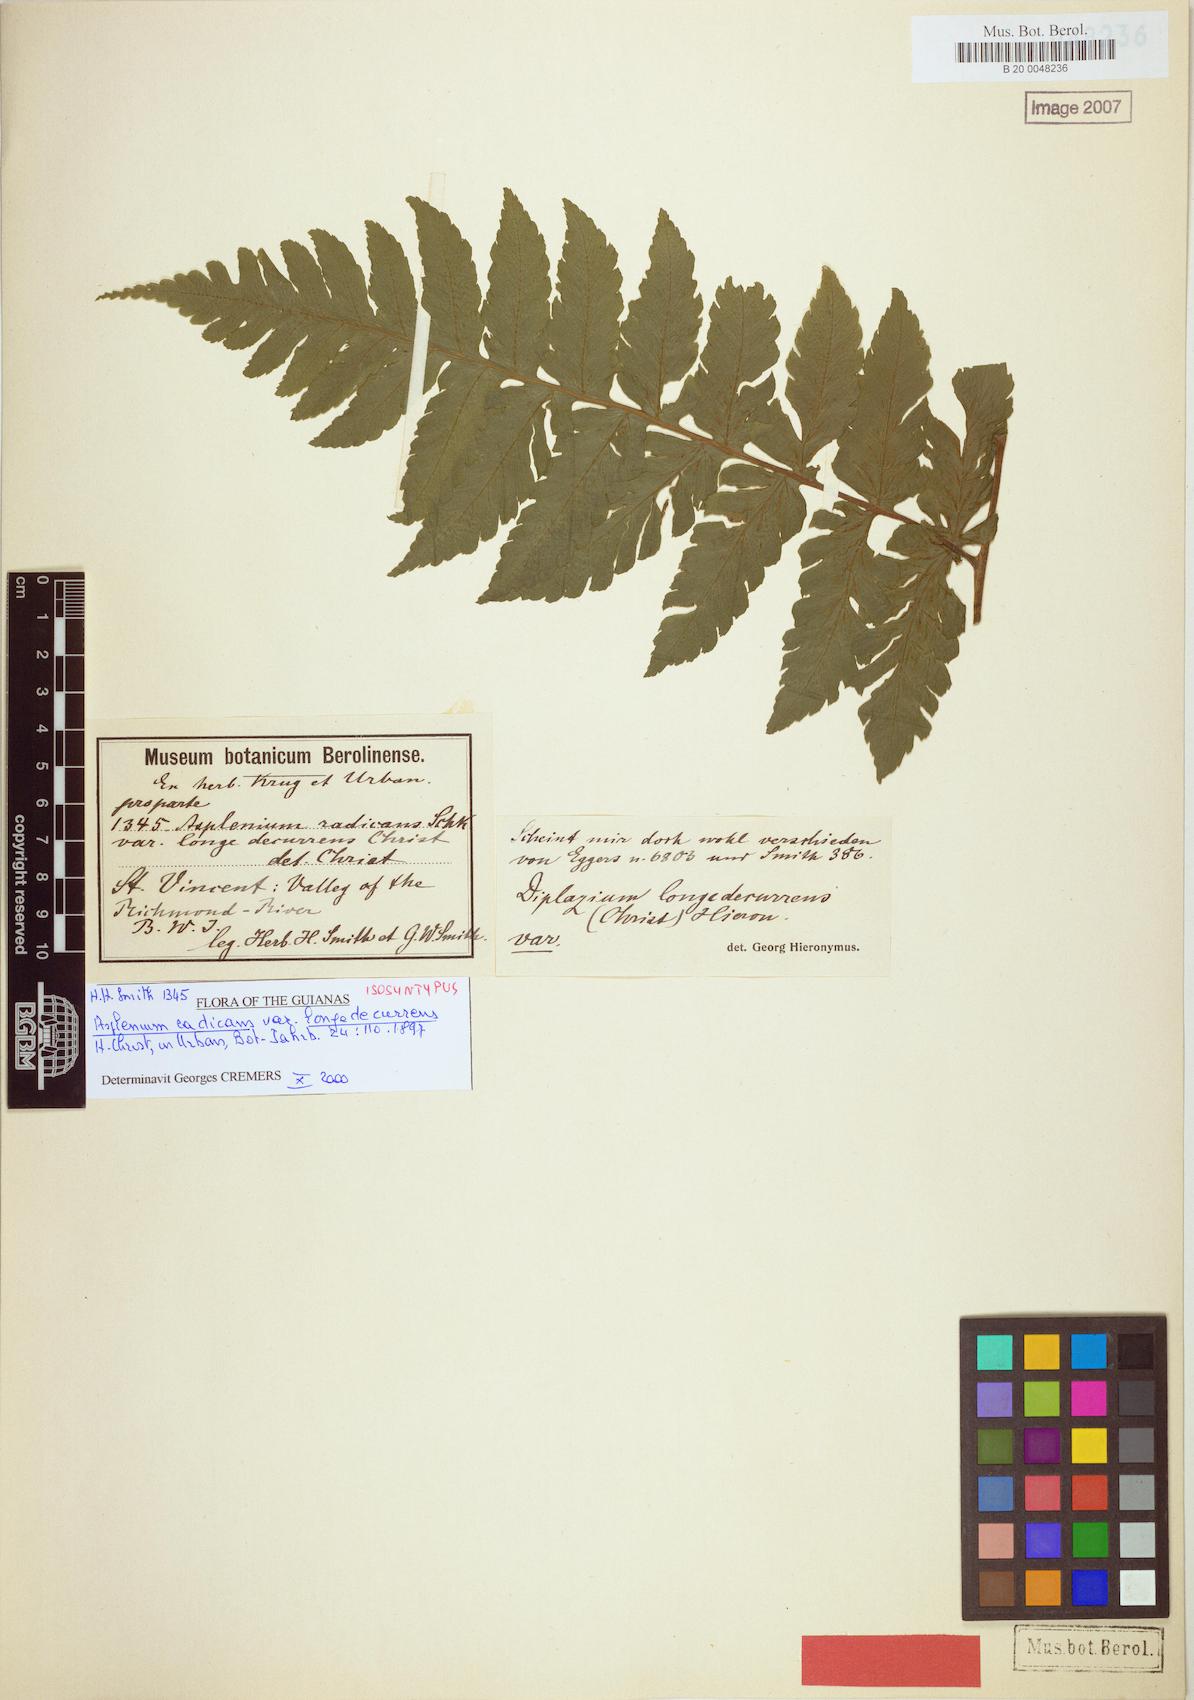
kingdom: Plantae
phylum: Tracheophyta
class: Polypodiopsida
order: Polypodiales
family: Athyriaceae
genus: Diplazium
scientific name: Diplazium
